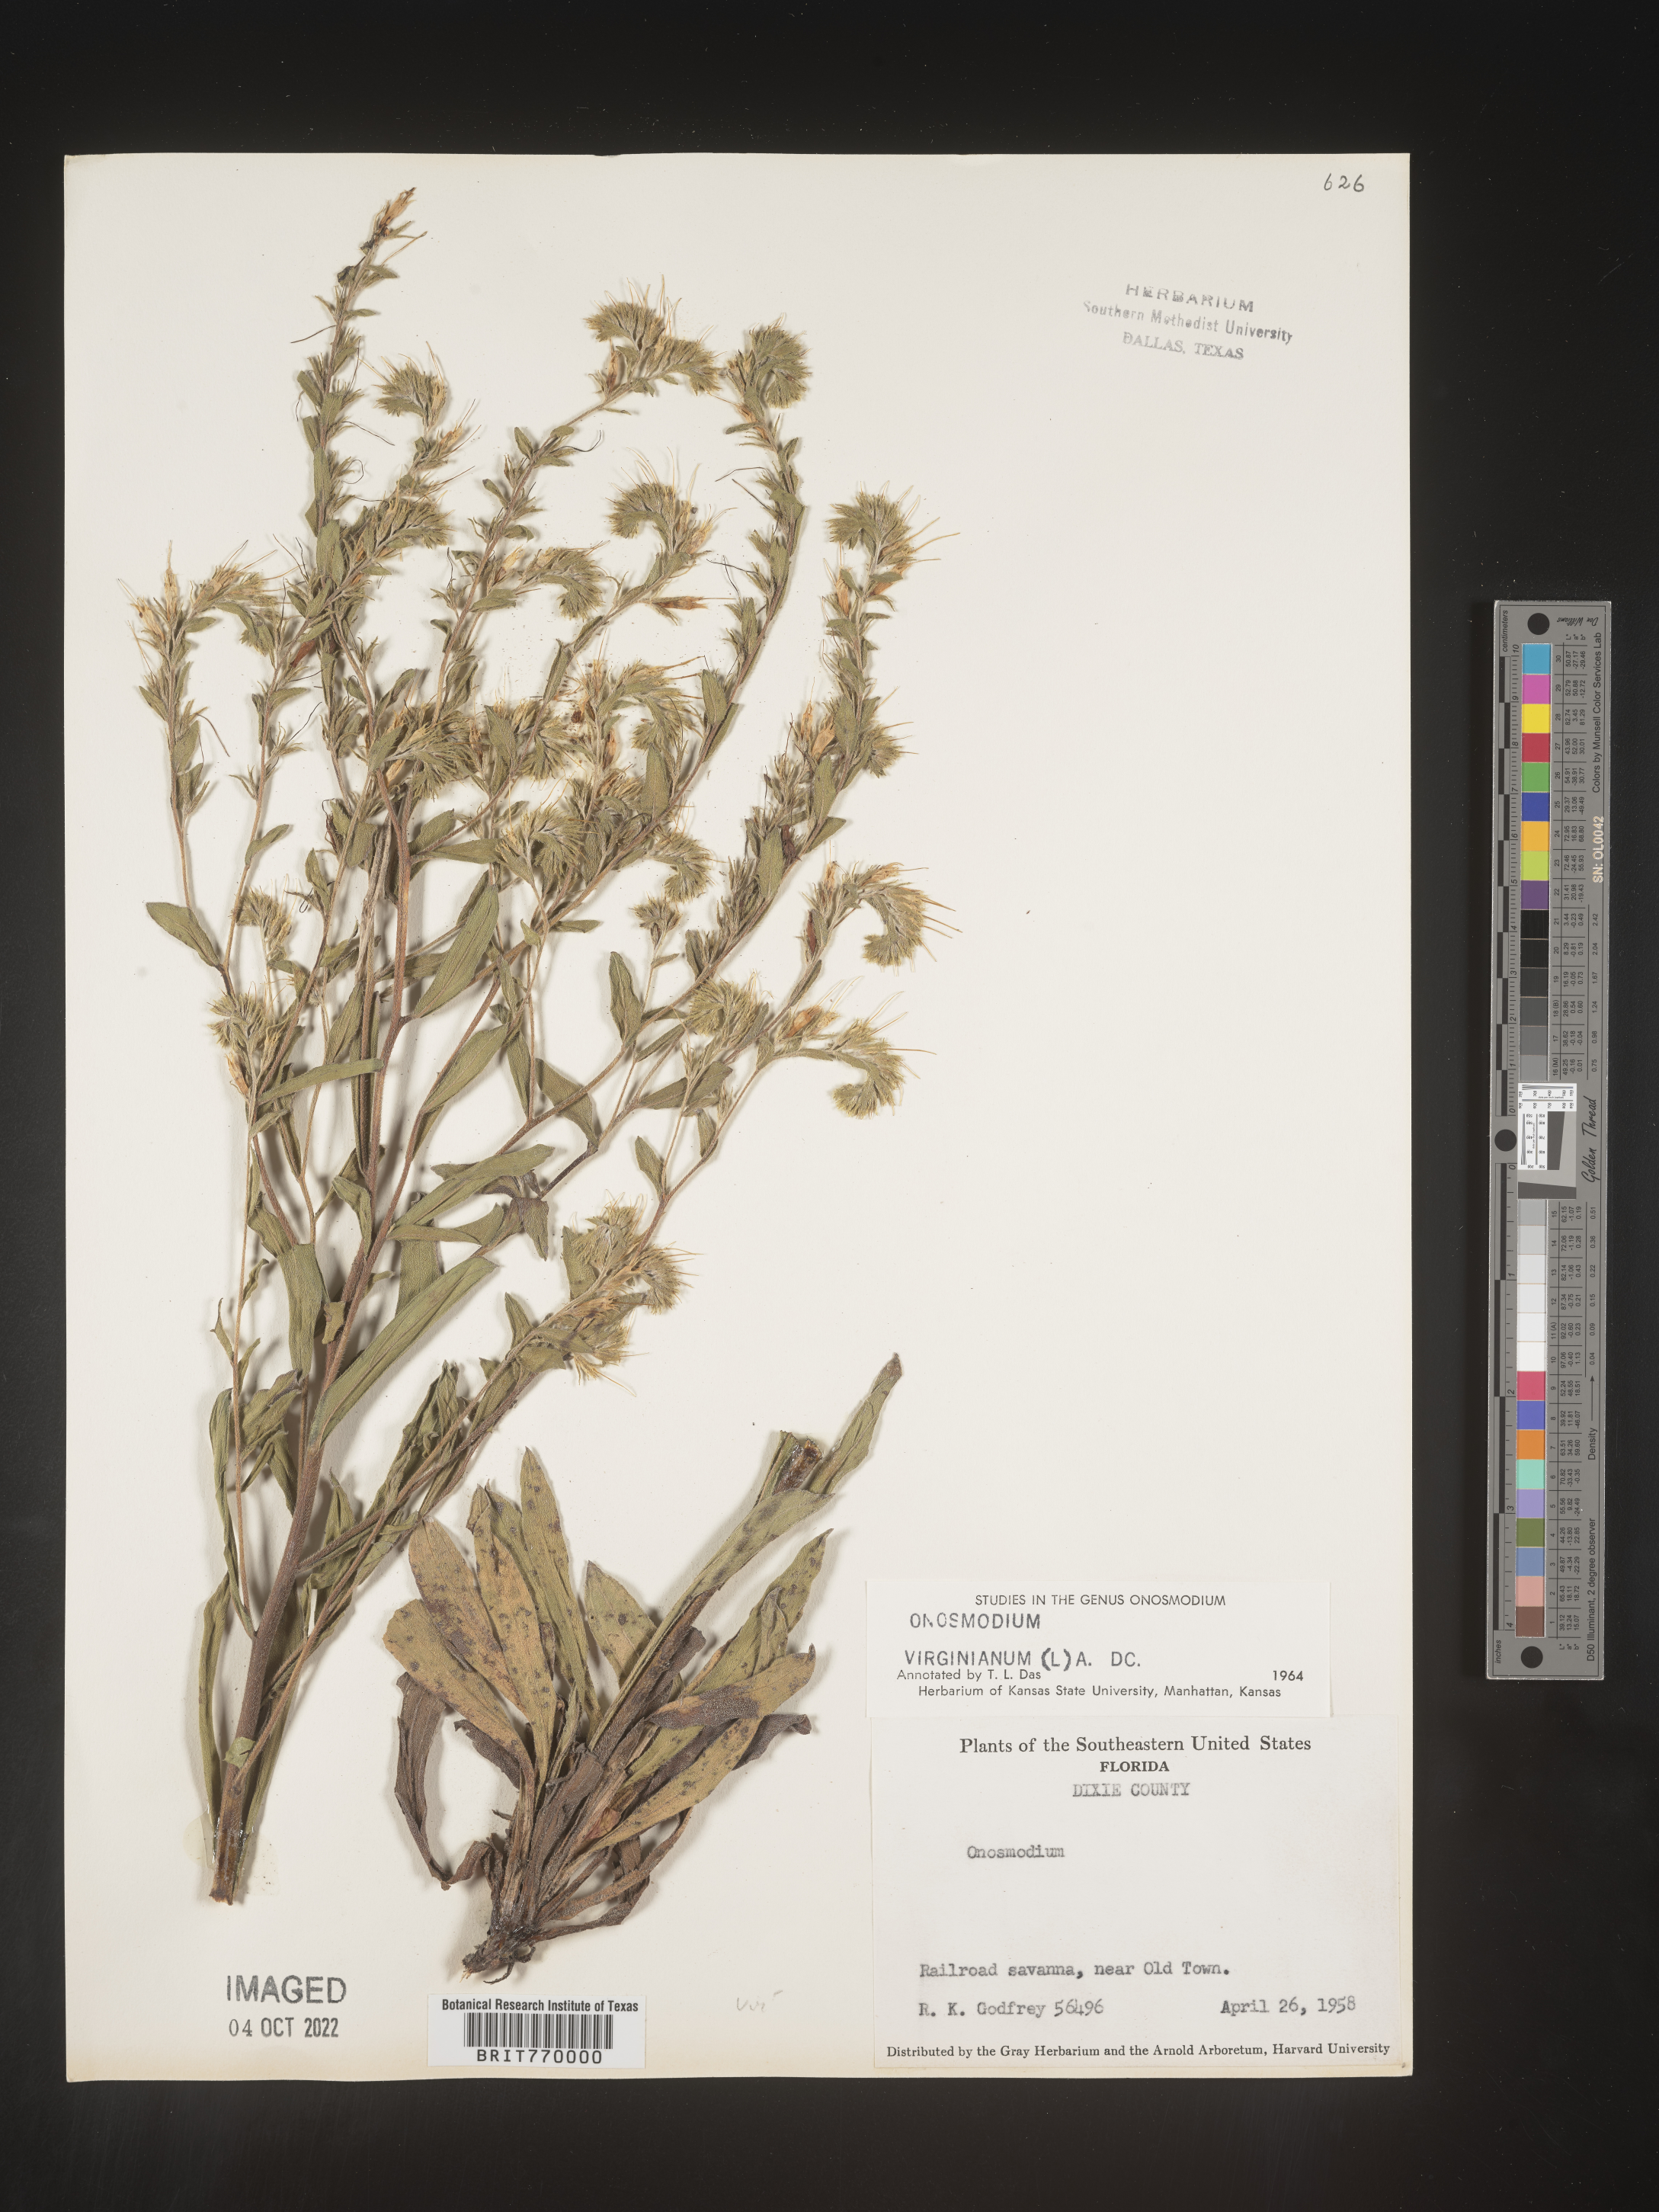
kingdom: Plantae
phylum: Tracheophyta
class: Magnoliopsida
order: Boraginales
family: Boraginaceae
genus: Lithospermum
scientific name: Lithospermum virginianum
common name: Eastern false gromwell
